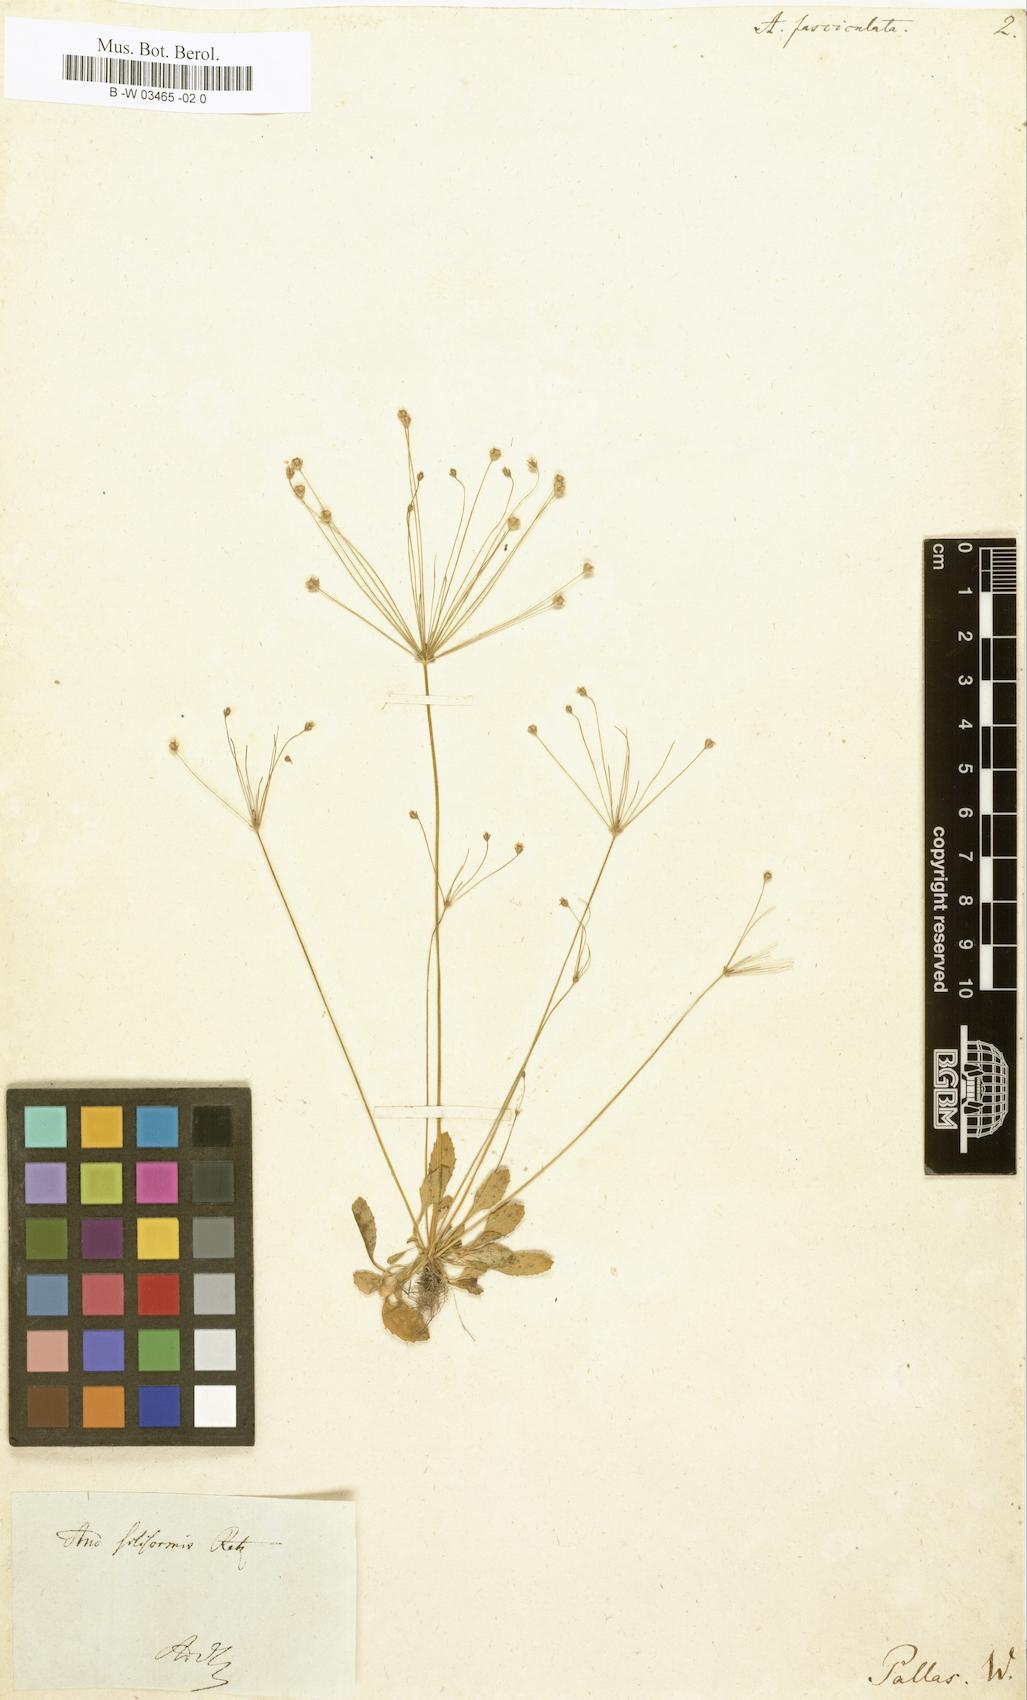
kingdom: Plantae
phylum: Tracheophyta
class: Magnoliopsida
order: Ericales
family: Primulaceae
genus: Androsace
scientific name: Androsace fasciculata
